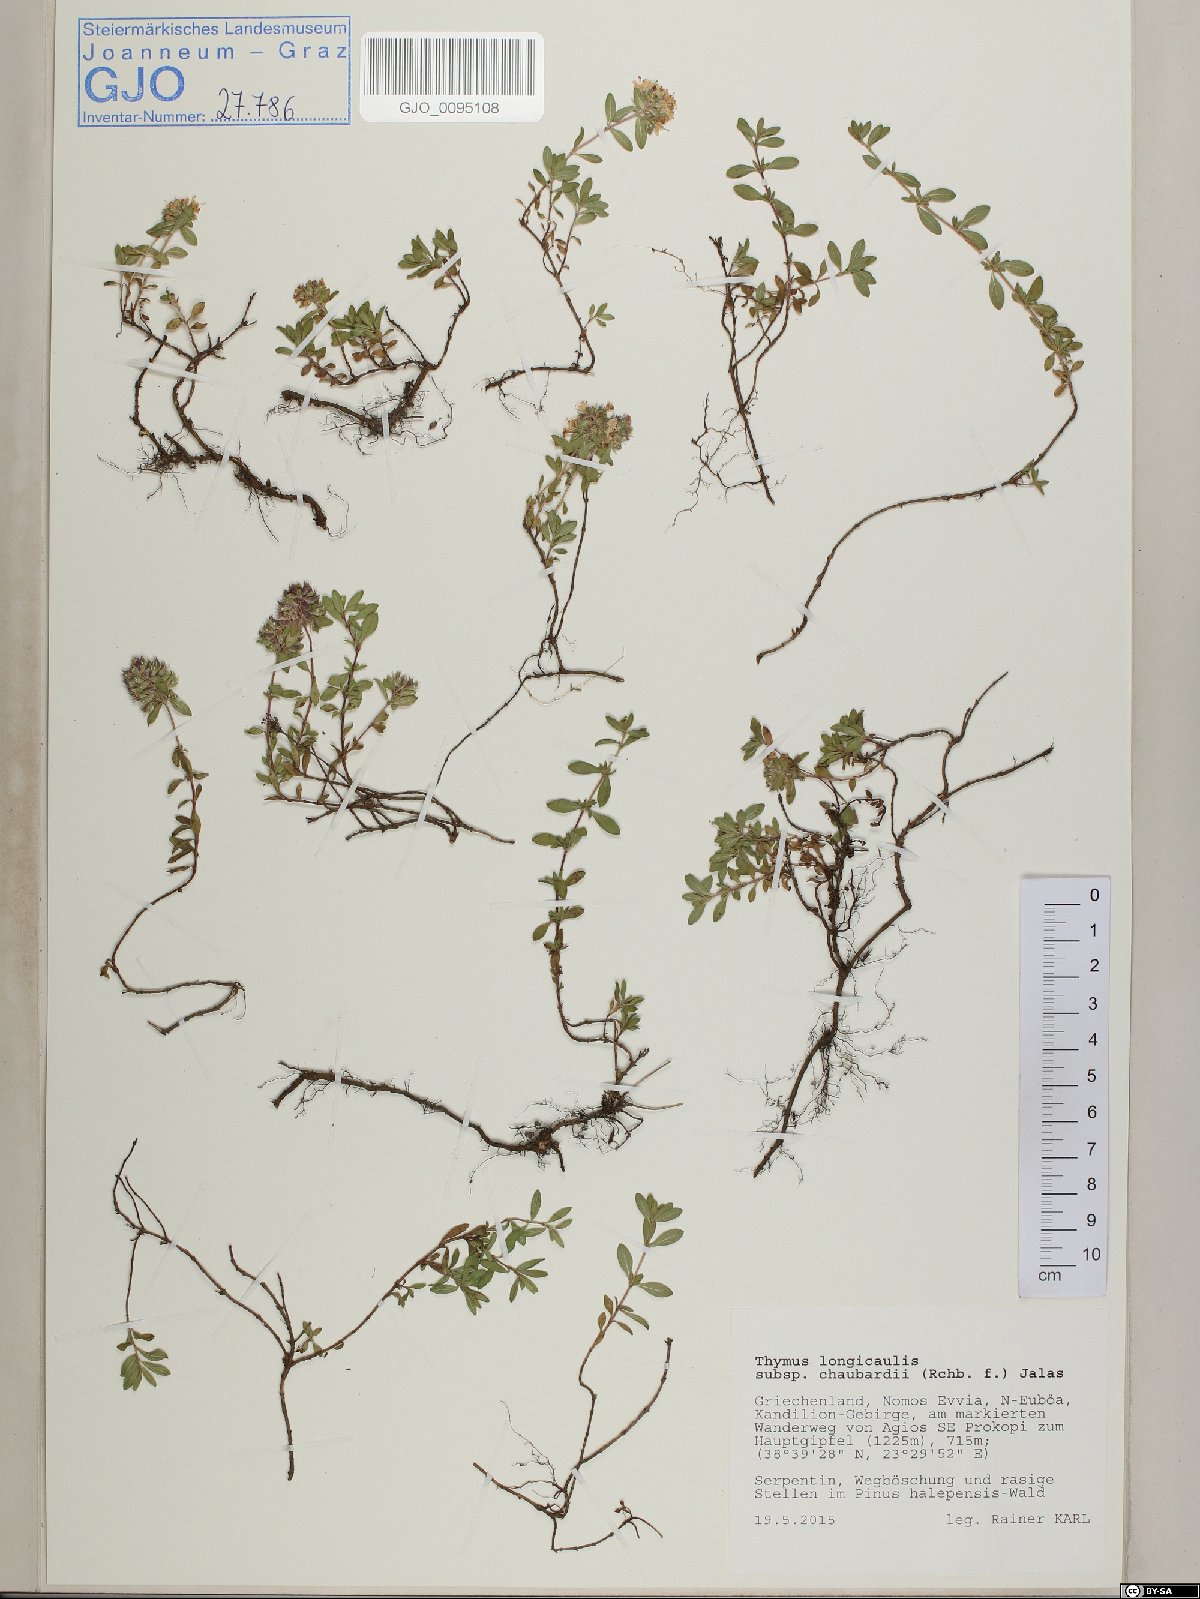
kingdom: Plantae
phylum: Tracheophyta
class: Magnoliopsida
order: Lamiales
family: Lamiaceae
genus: Thymus
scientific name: Thymus longicaulis
